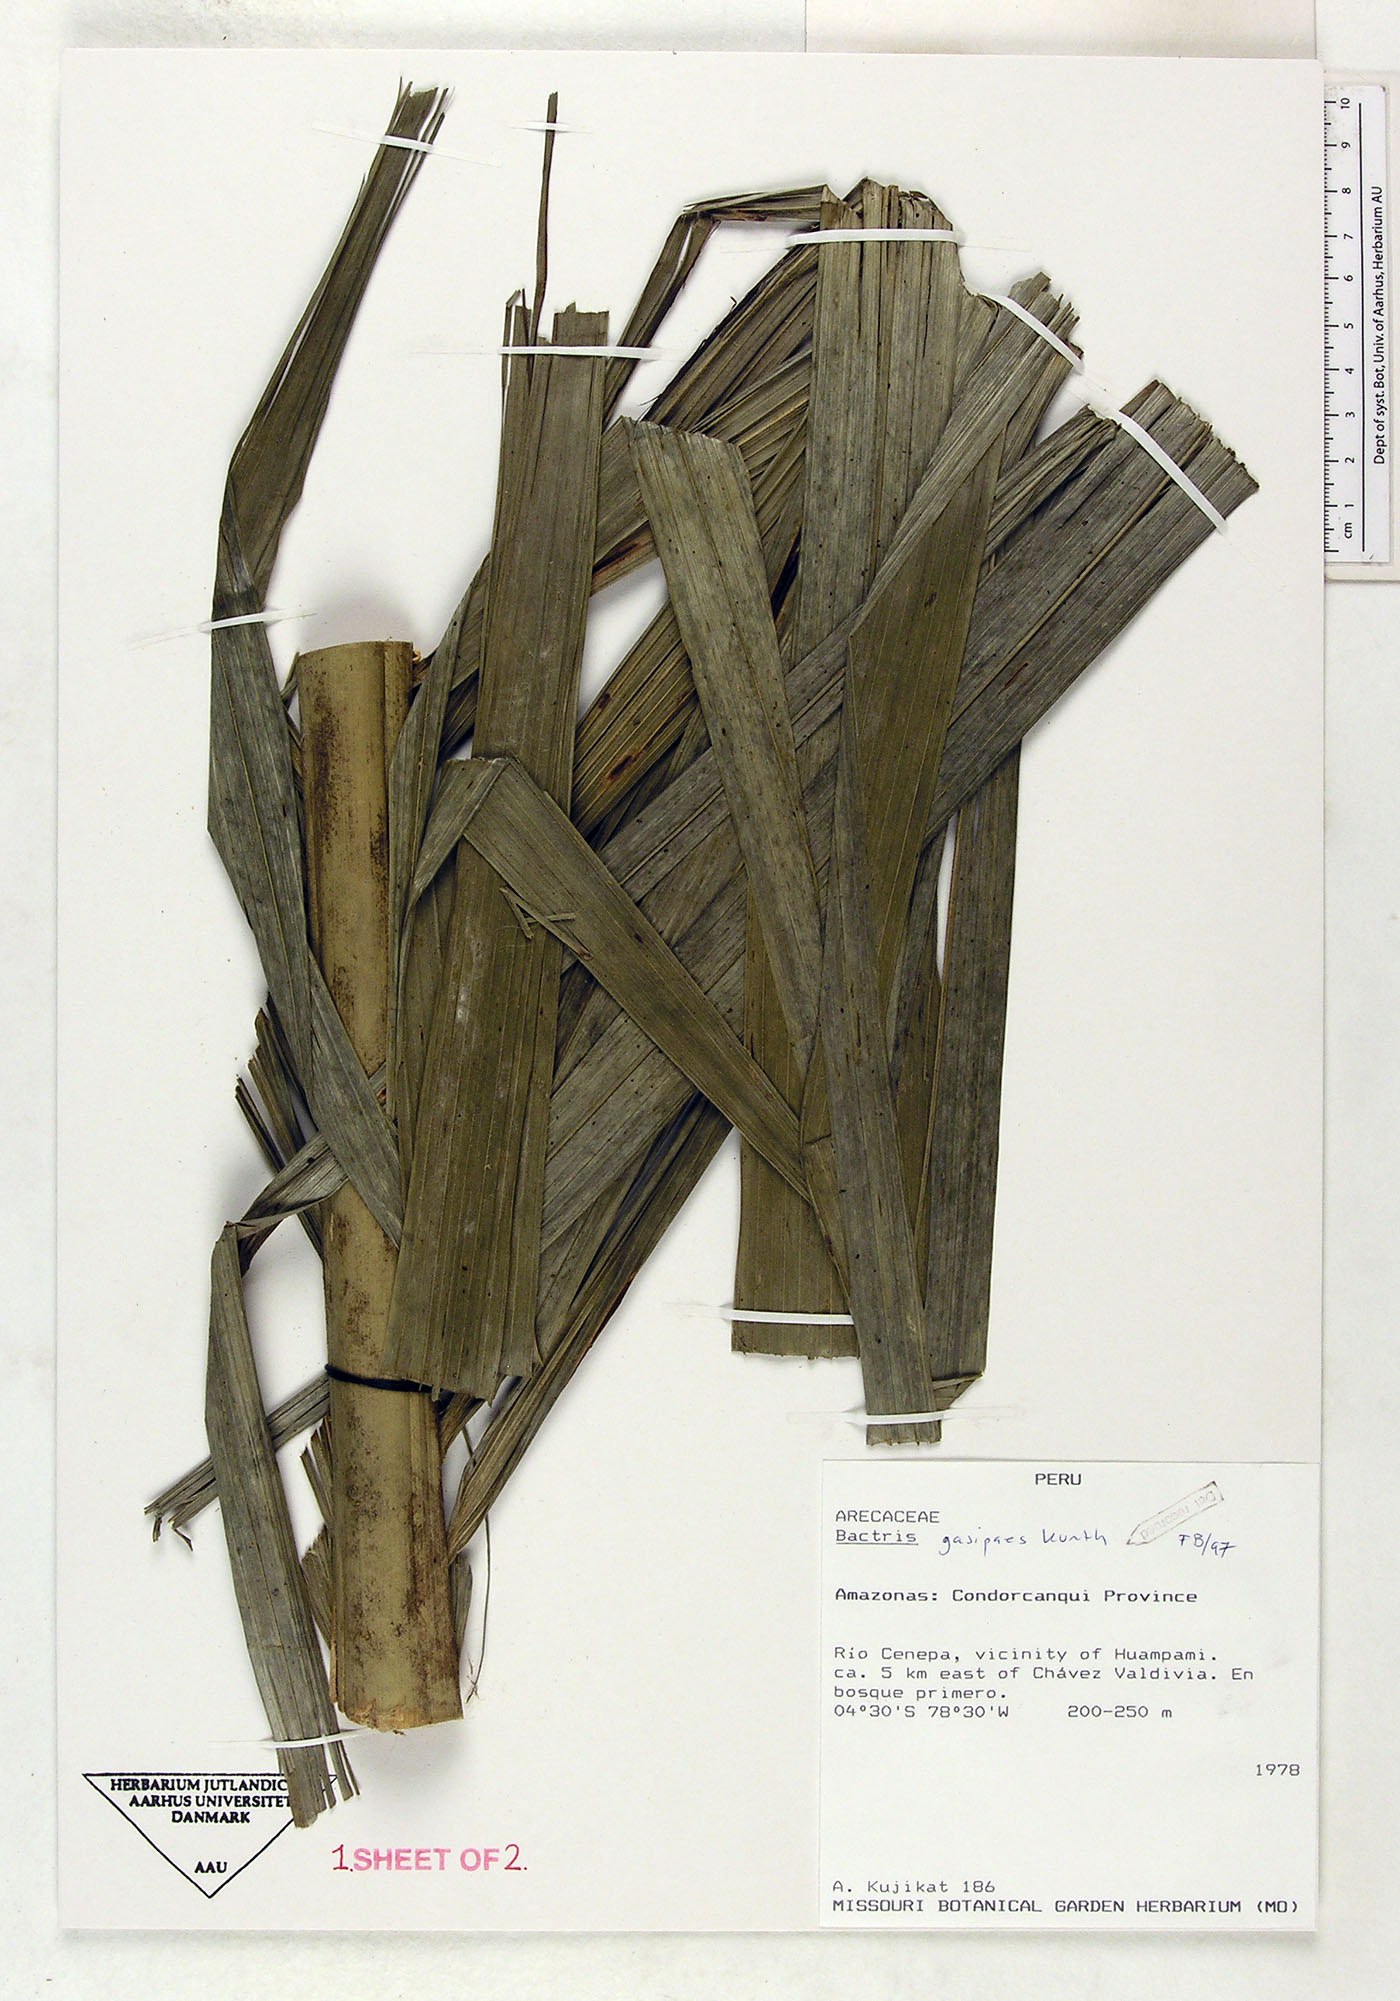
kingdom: Plantae
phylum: Tracheophyta
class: Liliopsida
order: Arecales
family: Arecaceae
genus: Bactris
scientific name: Bactris gasipaes
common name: Peach palm
